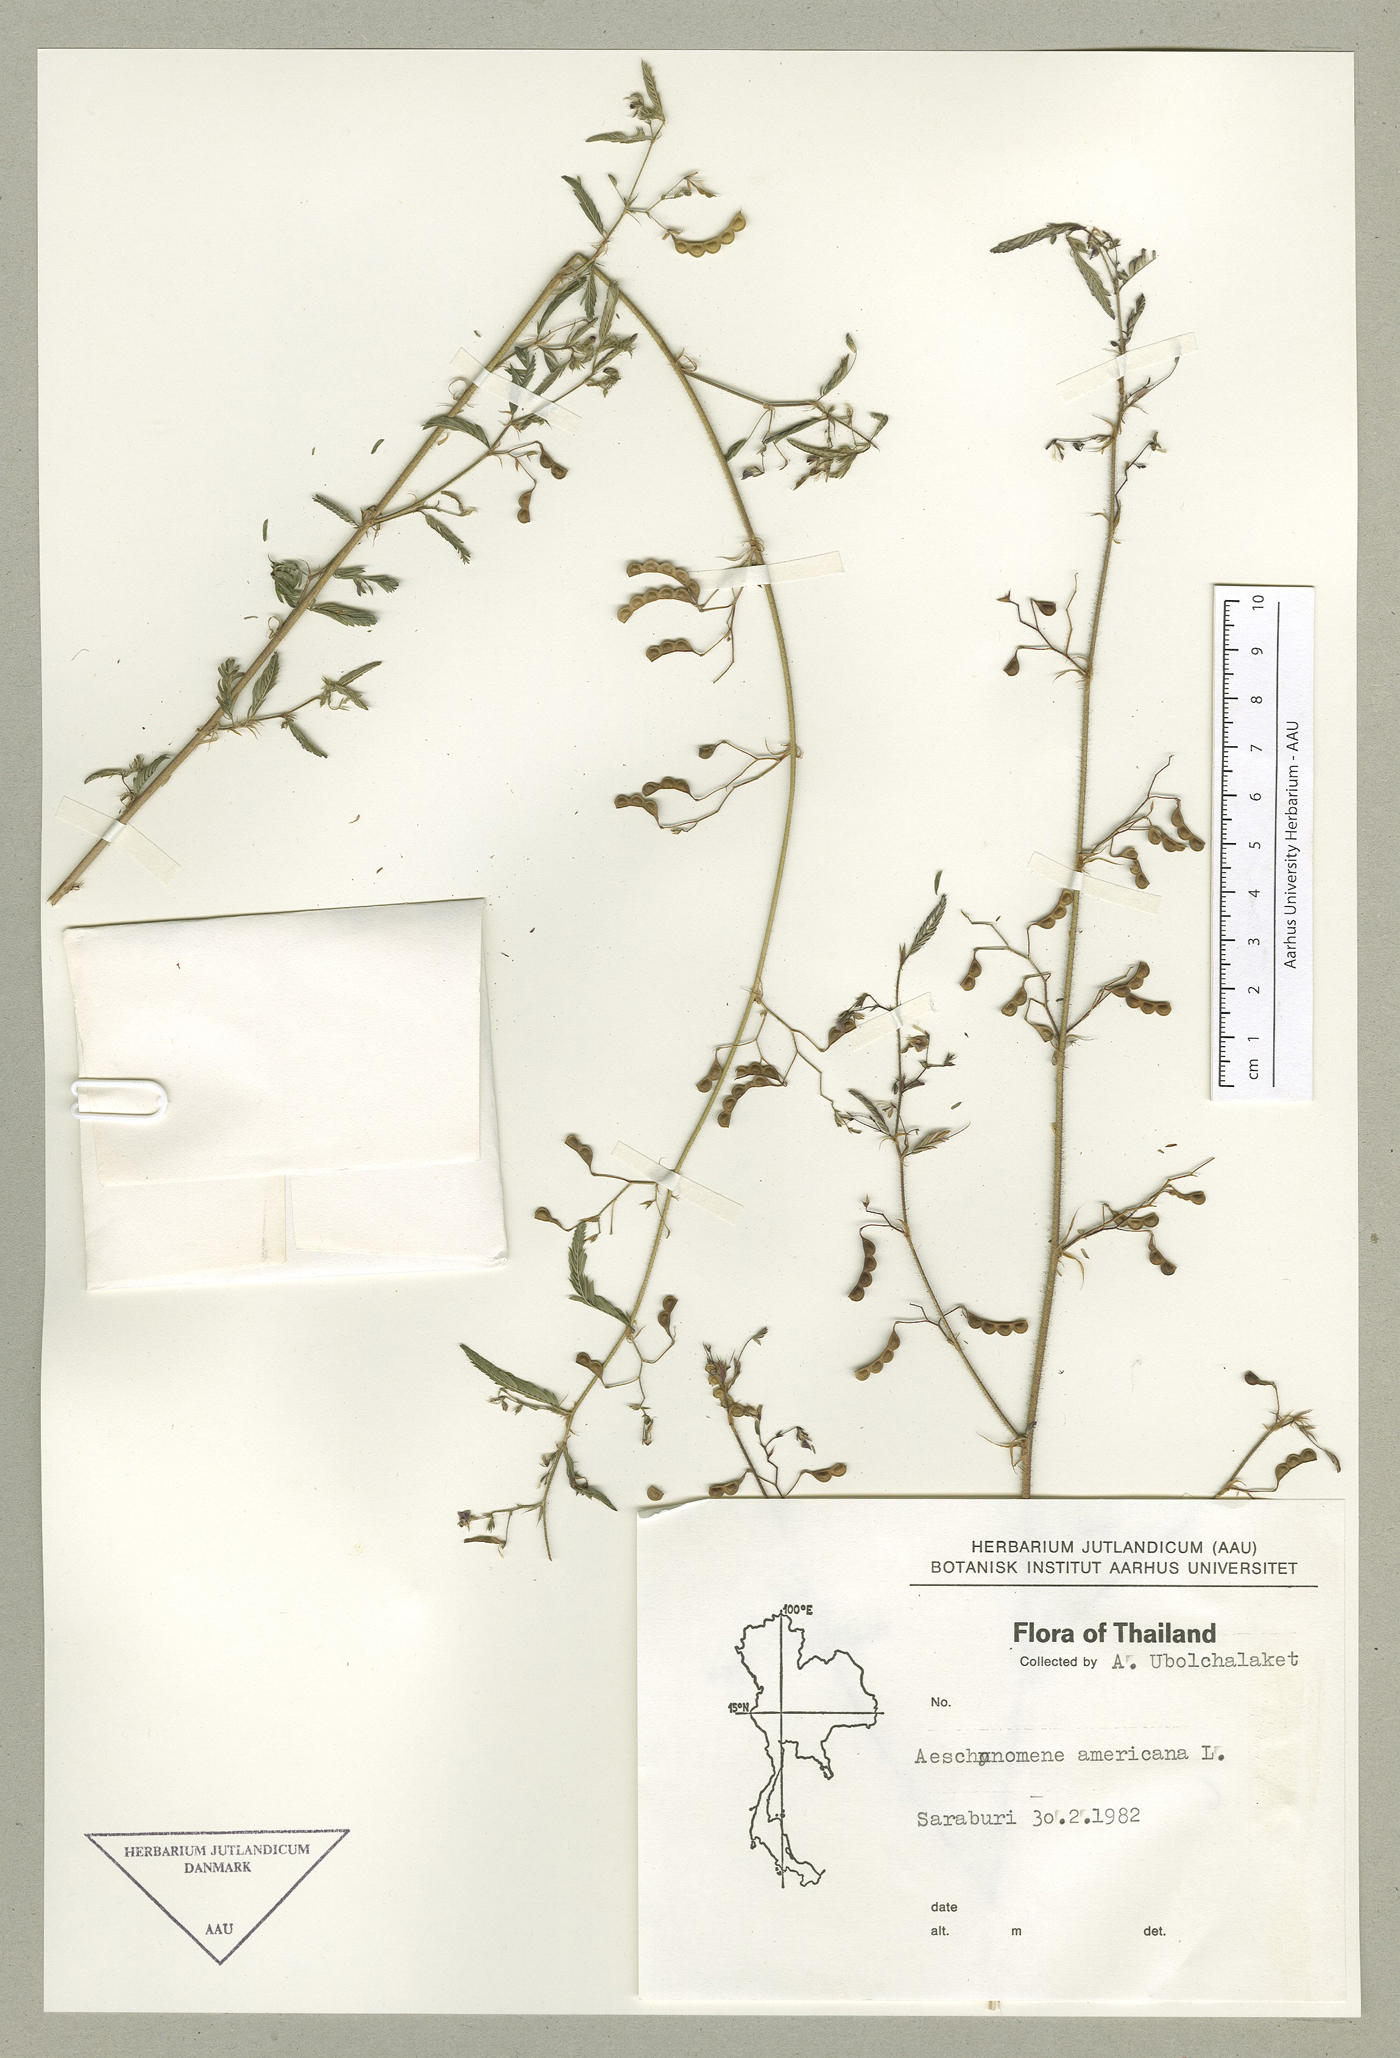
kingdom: Plantae
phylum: Tracheophyta
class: Magnoliopsida
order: Fabales
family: Fabaceae
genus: Aeschynomene
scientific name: Aeschynomene americana
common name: Joint-vetch
